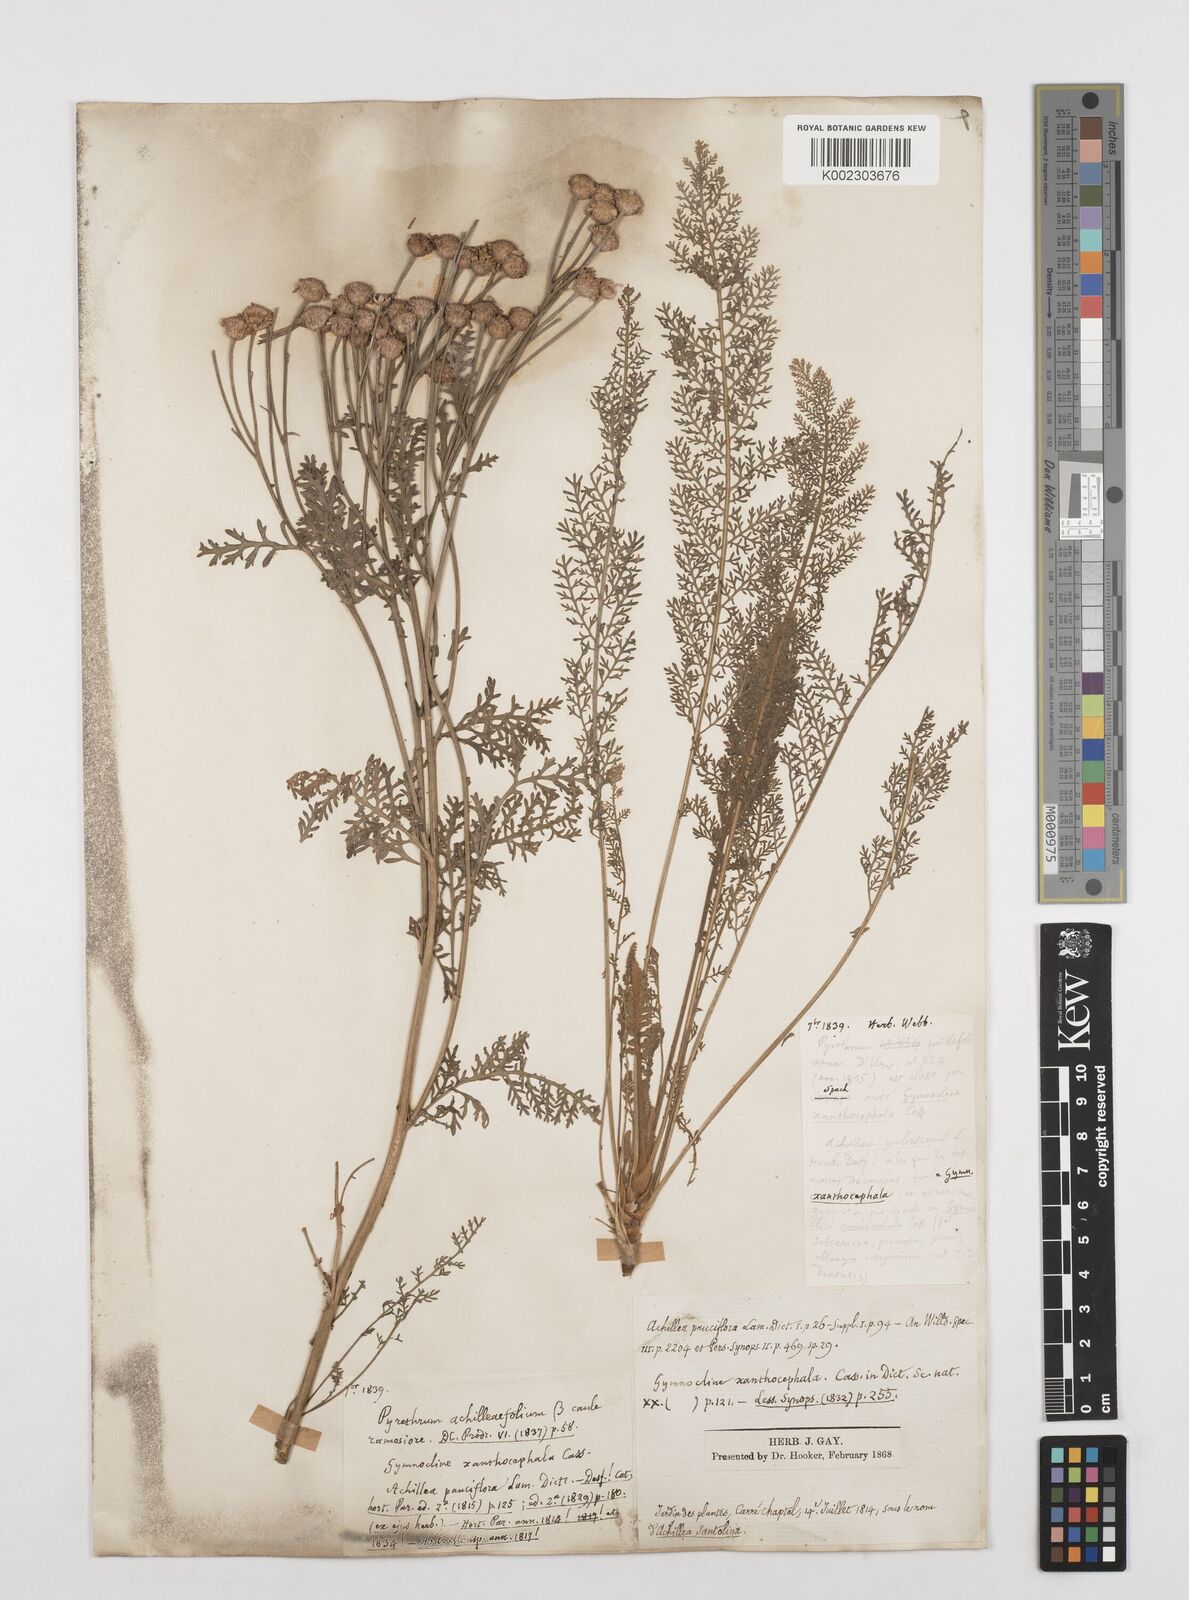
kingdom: Plantae
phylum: Tracheophyta
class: Magnoliopsida
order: Asterales
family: Asteraceae
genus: Tanacetum
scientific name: Tanacetum abrotanifolium
